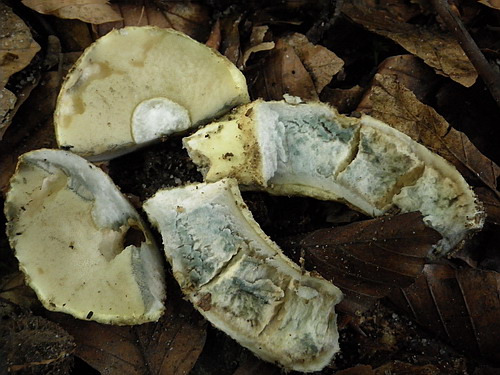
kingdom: Fungi
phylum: Basidiomycota
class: Agaricomycetes
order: Boletales
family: Gyroporaceae
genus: Gyroporus
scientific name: Gyroporus cyanescens
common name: blånende kammerrørhat
